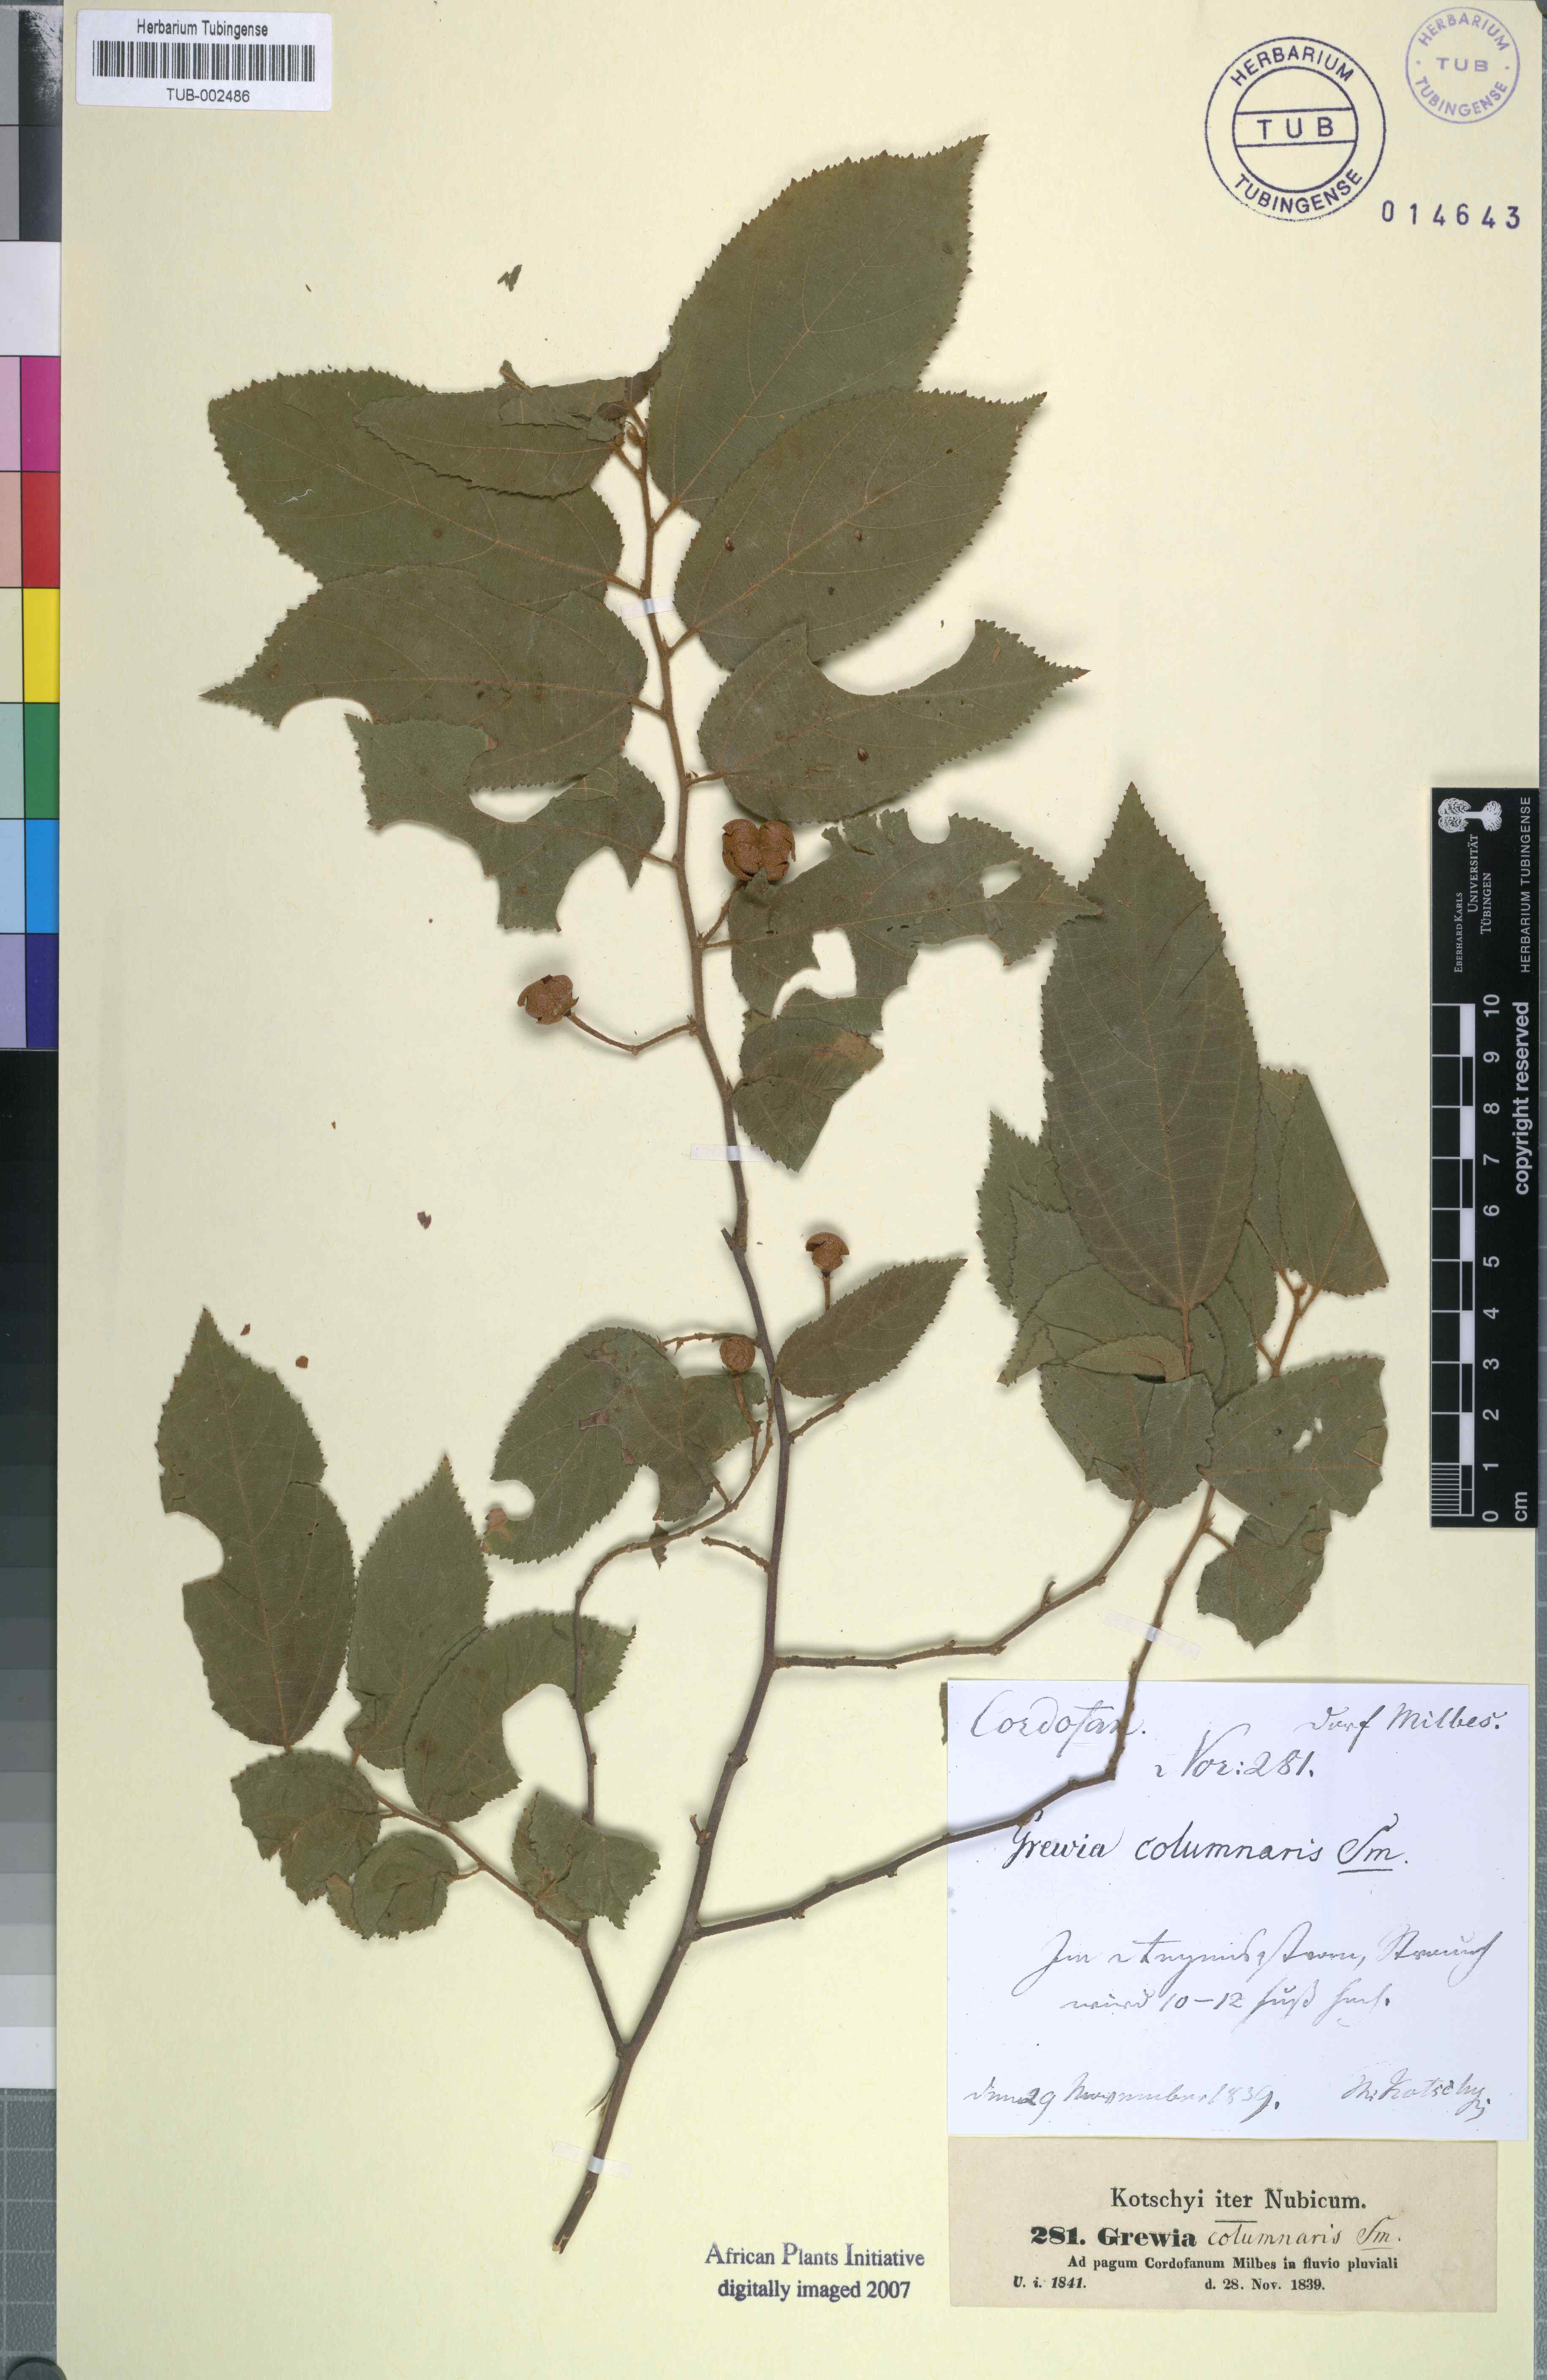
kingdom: Plantae
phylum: Tracheophyta
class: Magnoliopsida
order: Malvales
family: Malvaceae
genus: Grewia
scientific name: Grewia orientalis
